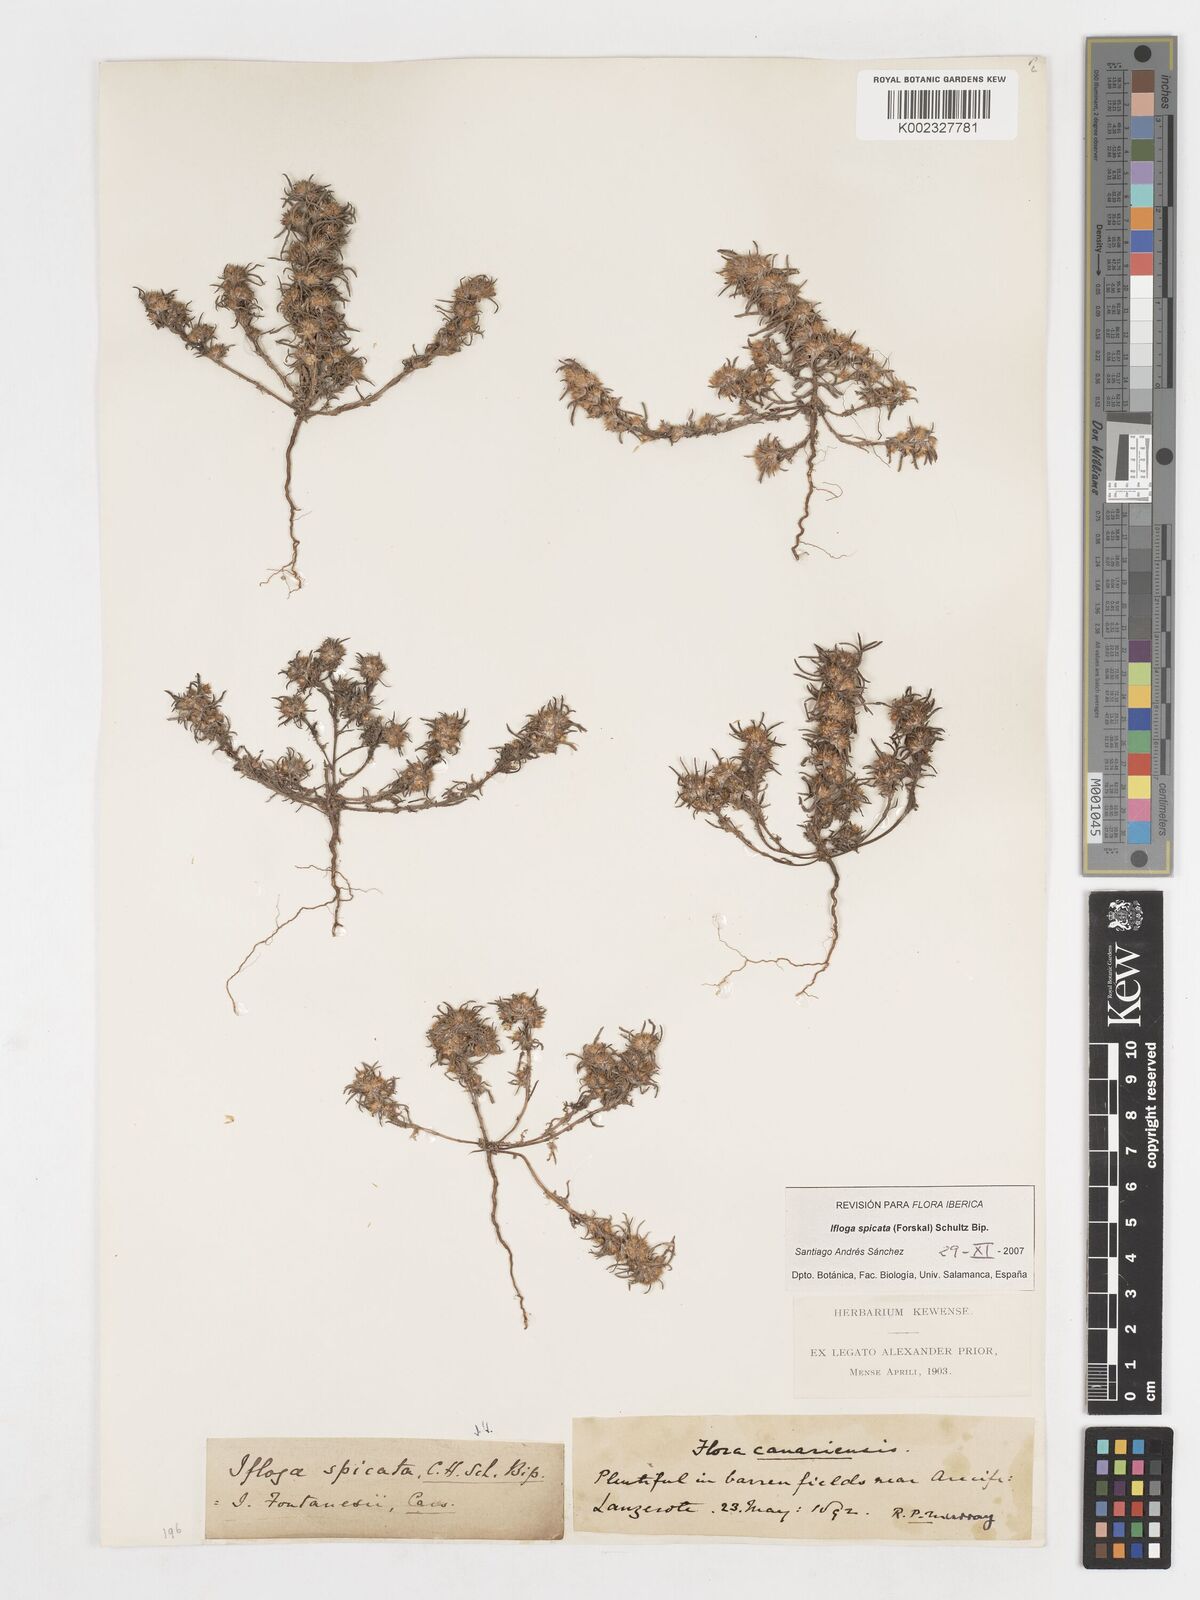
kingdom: Plantae
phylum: Tracheophyta
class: Magnoliopsida
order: Asterales
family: Asteraceae
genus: Ifloga
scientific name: Ifloga spicata
